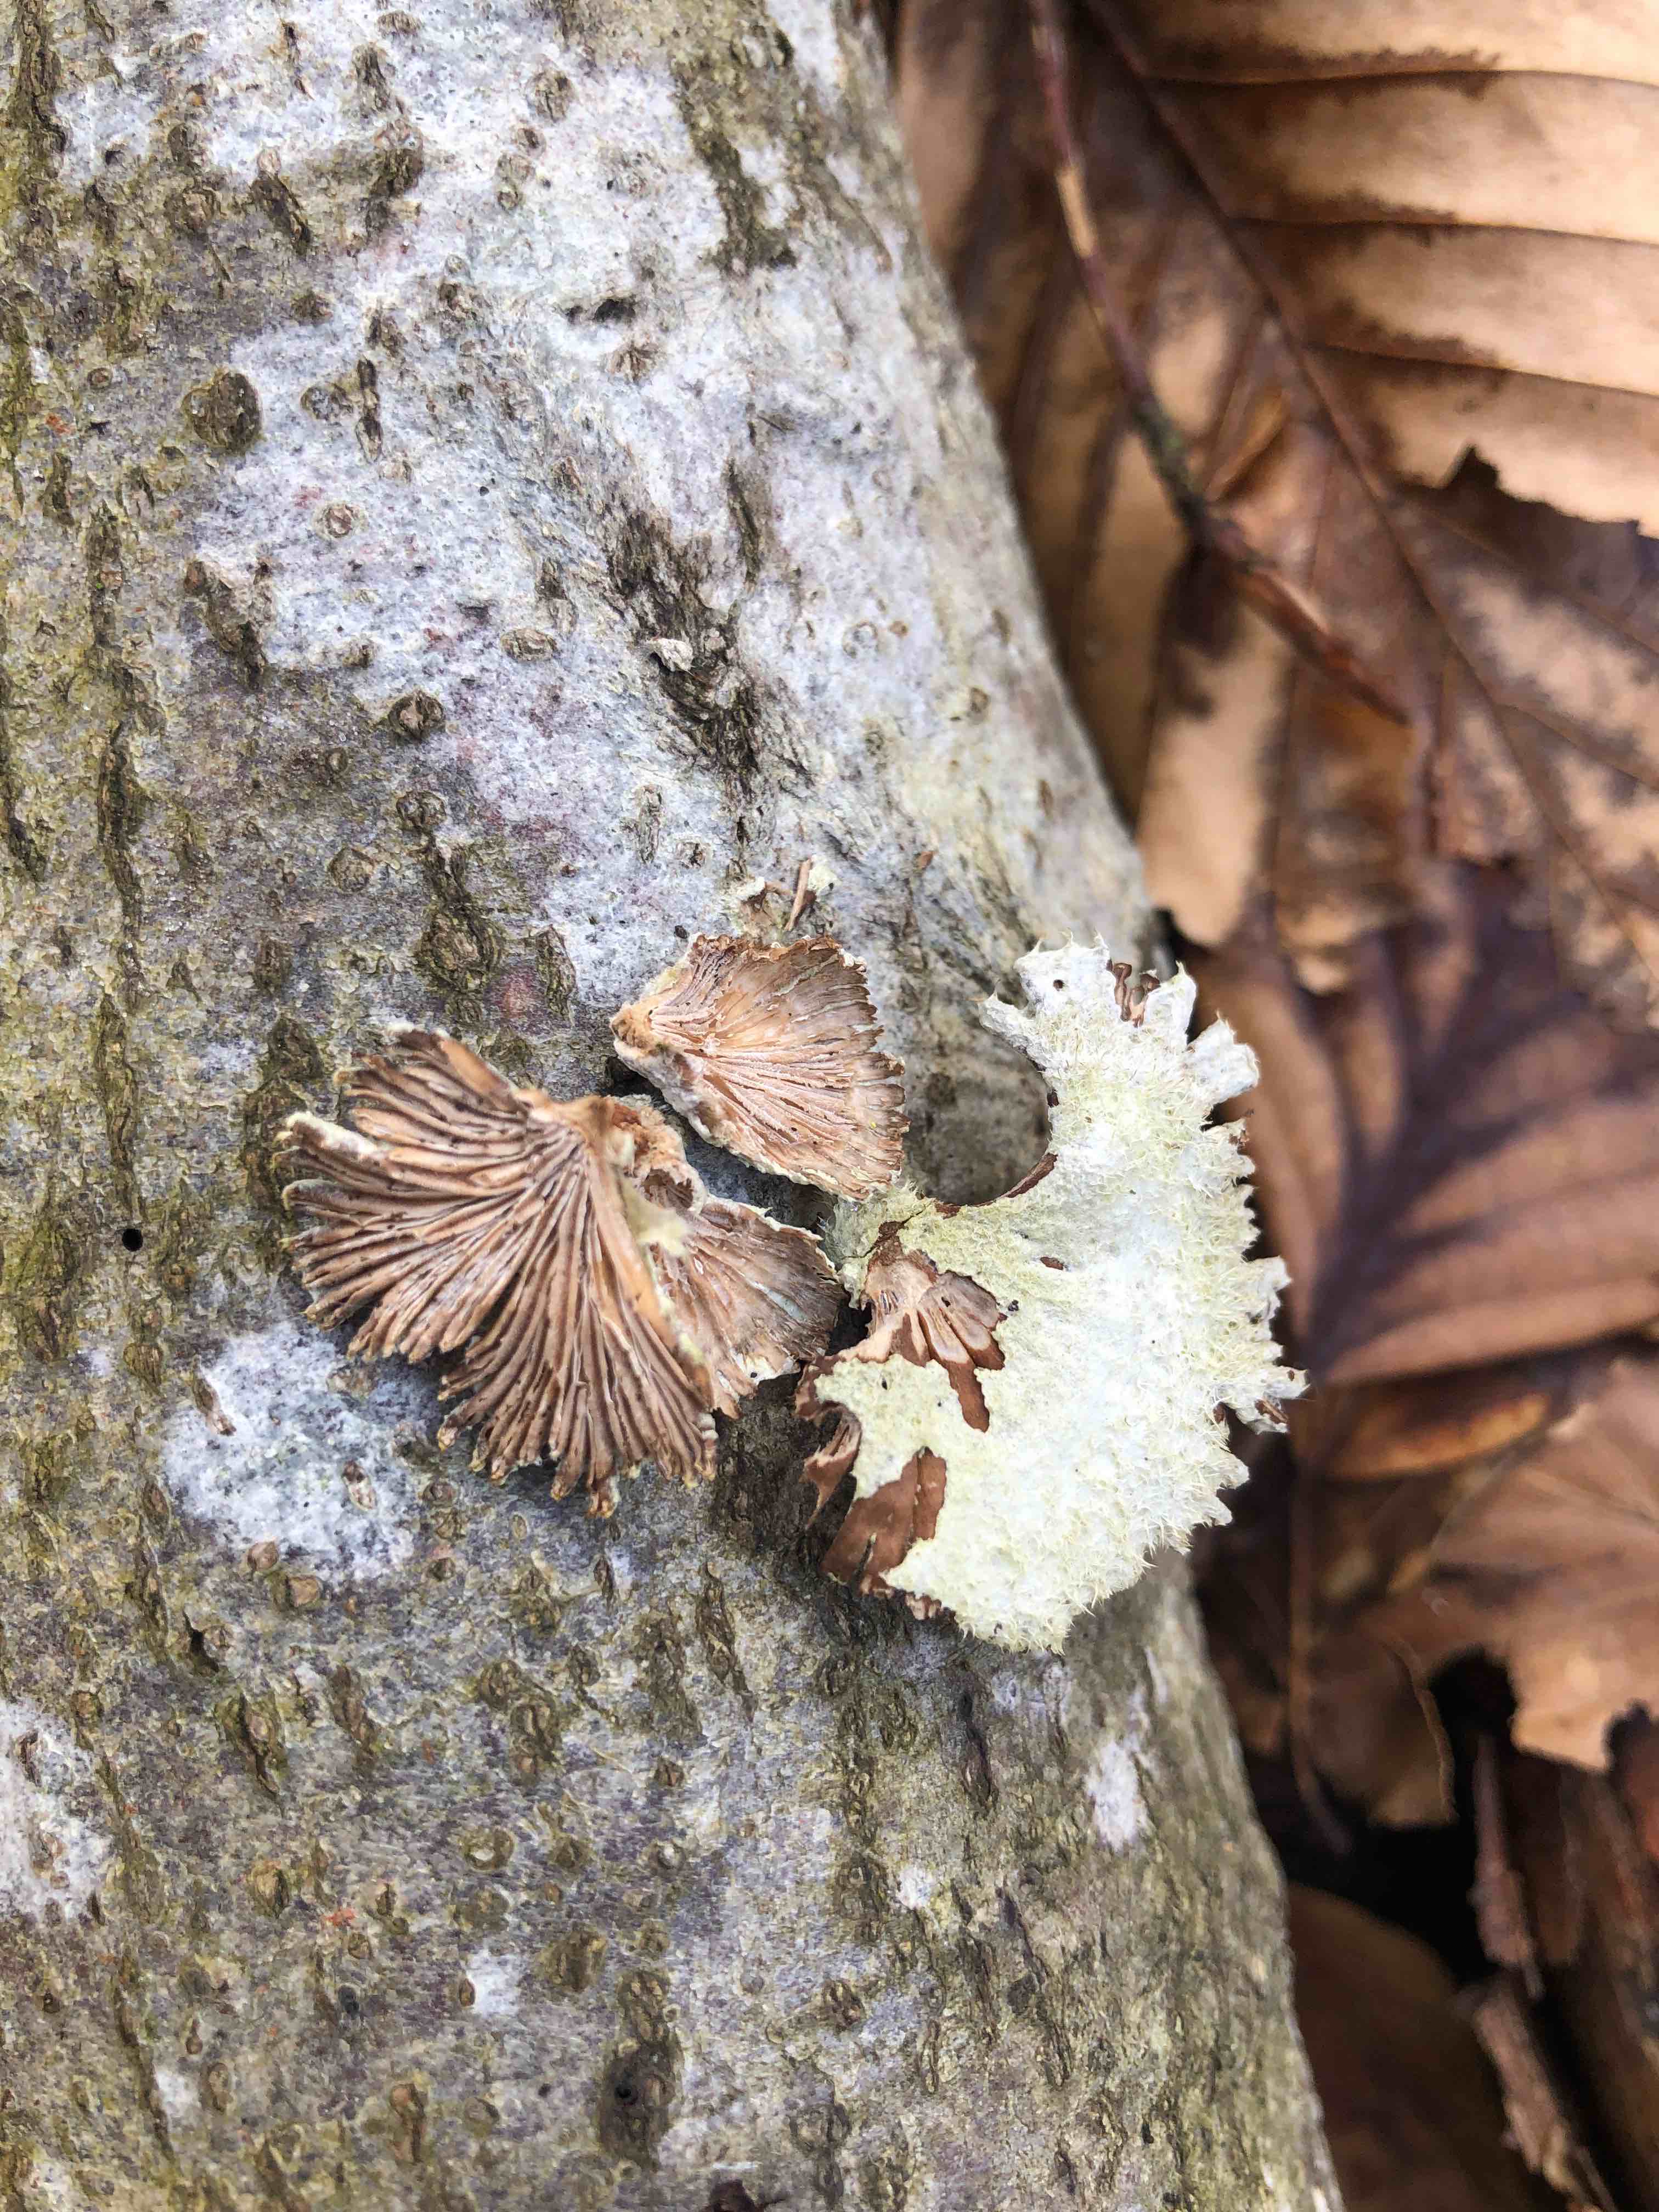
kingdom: Fungi
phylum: Basidiomycota
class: Agaricomycetes
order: Agaricales
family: Schizophyllaceae
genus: Schizophyllum
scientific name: Schizophyllum commune
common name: kløvblad
